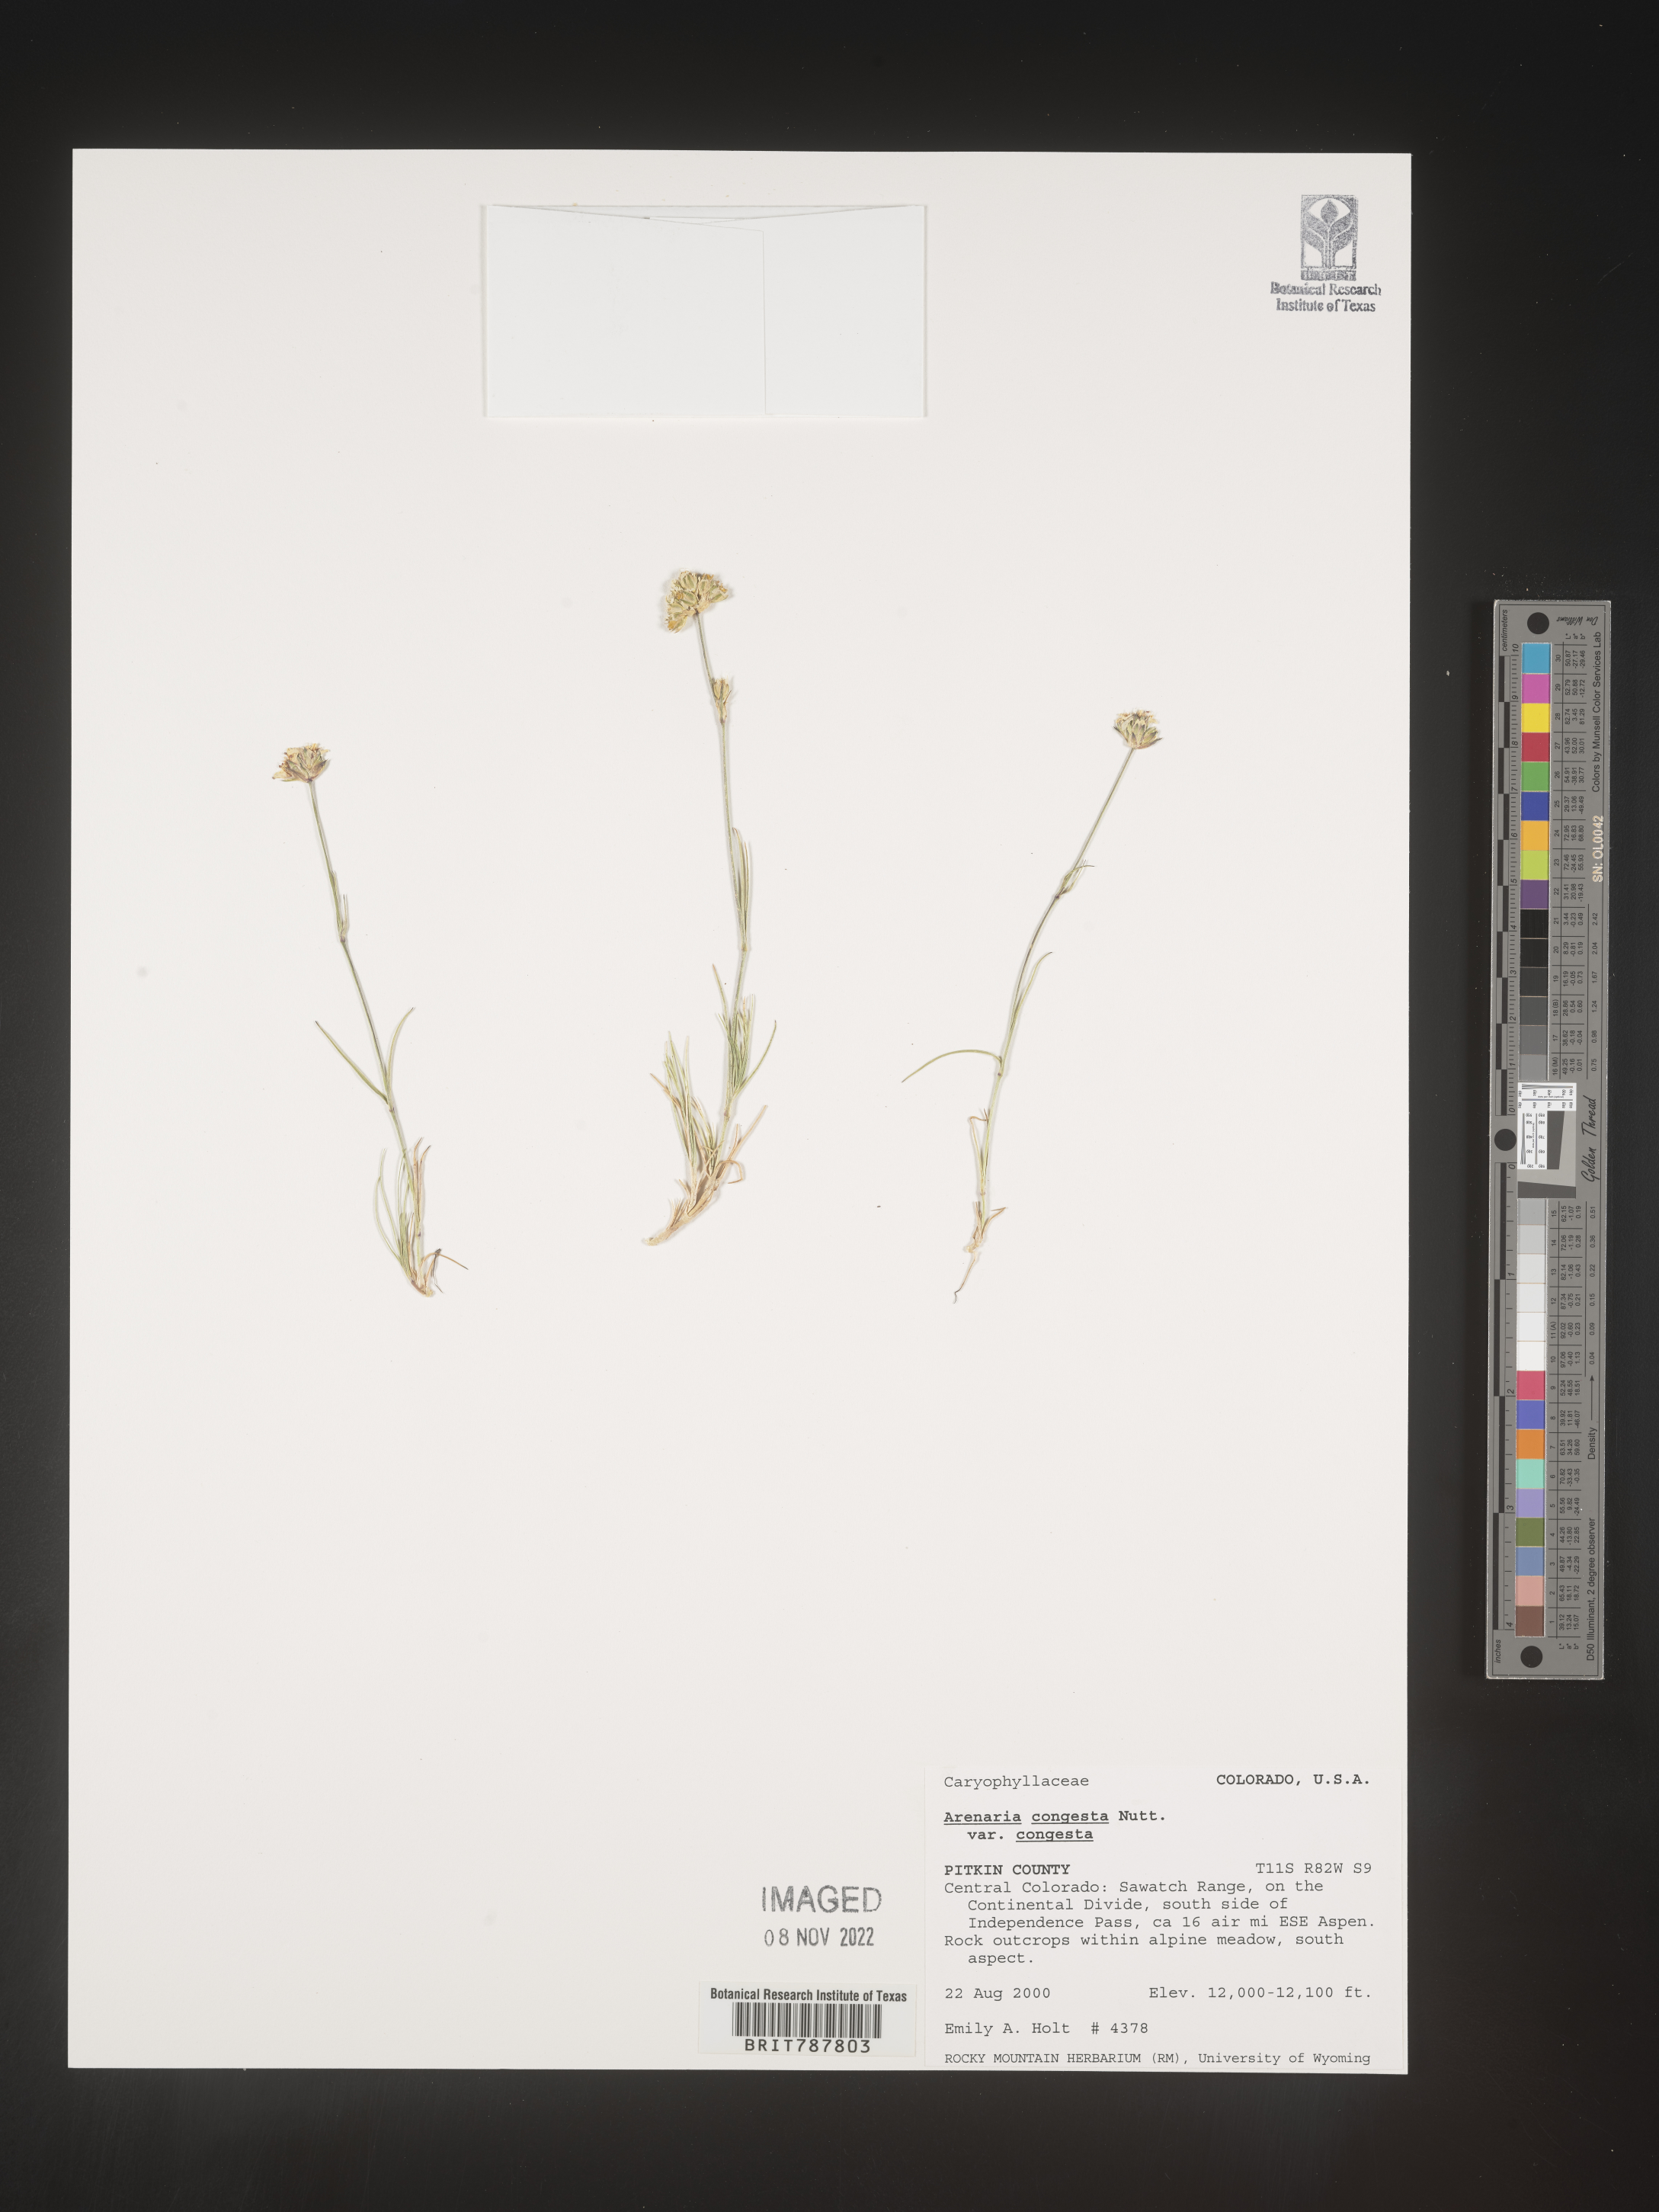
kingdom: Plantae
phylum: Tracheophyta
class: Magnoliopsida
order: Caryophyllales
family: Caryophyllaceae
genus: Eremogone
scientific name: Eremogone congesta
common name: Ballhead sandwort
